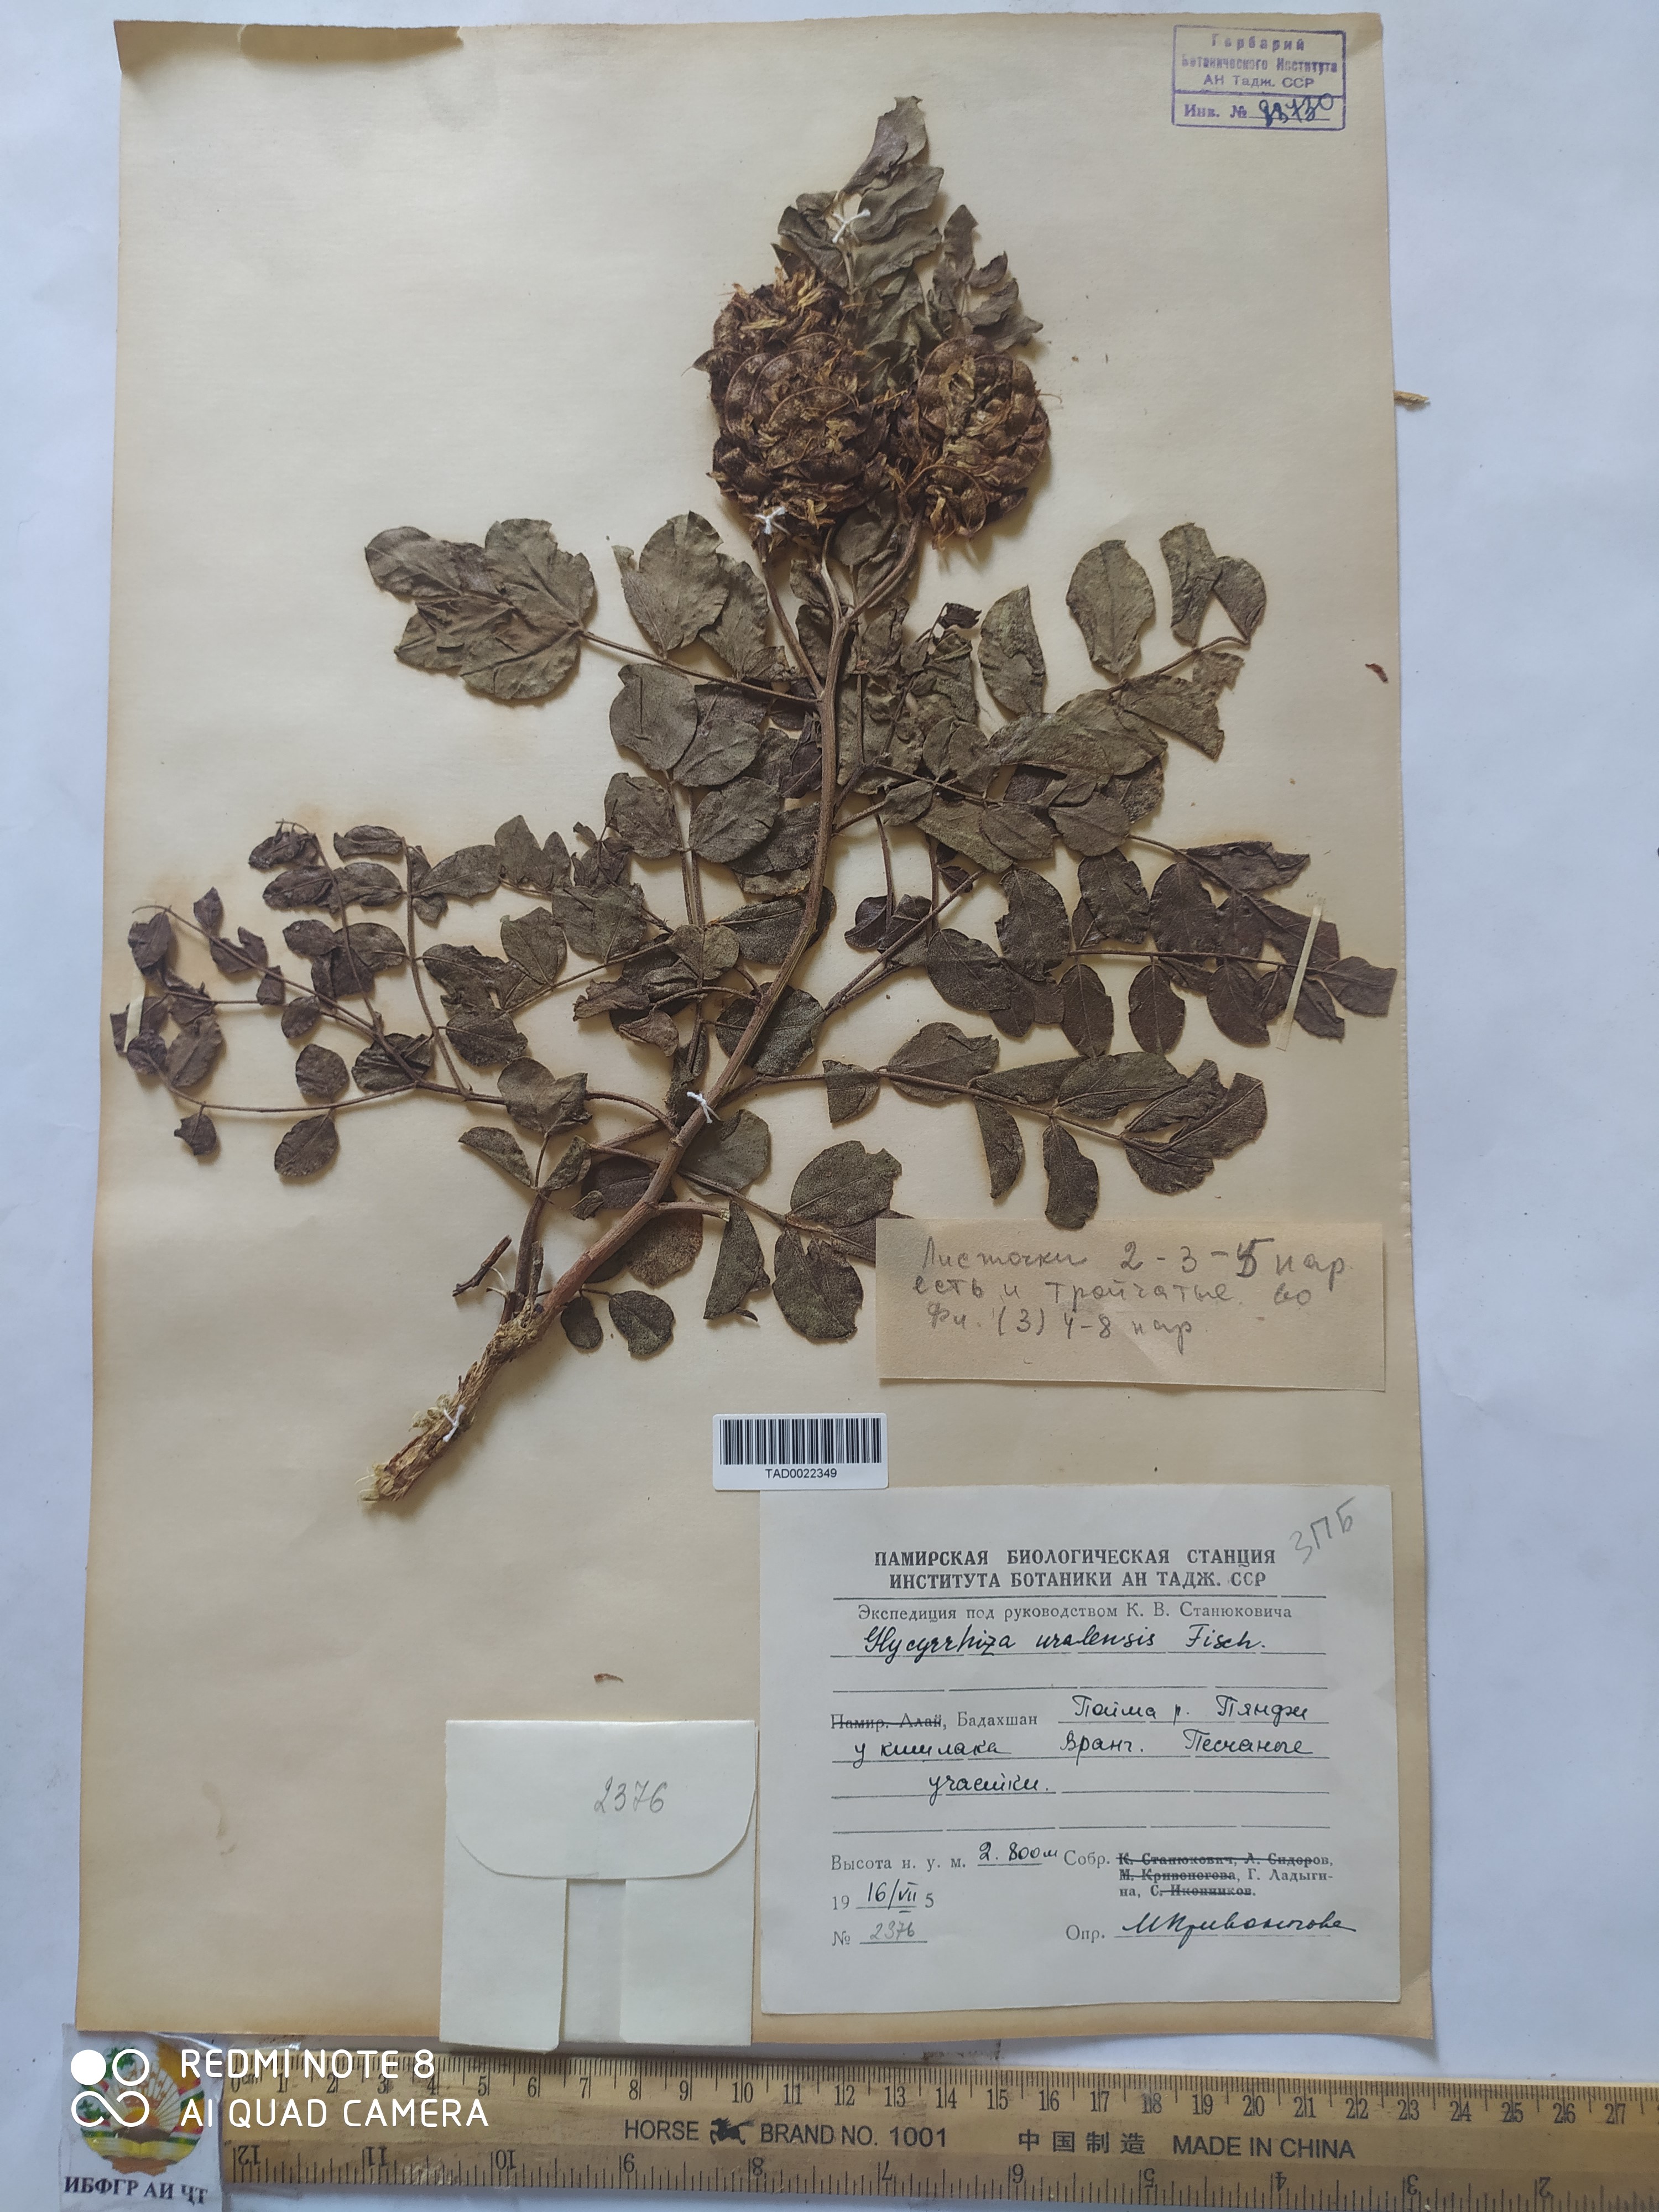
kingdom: Plantae
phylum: Tracheophyta
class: Magnoliopsida
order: Fabales
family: Fabaceae
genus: Glycyrrhiza
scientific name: Glycyrrhiza uralensis
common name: Chinese licorice
